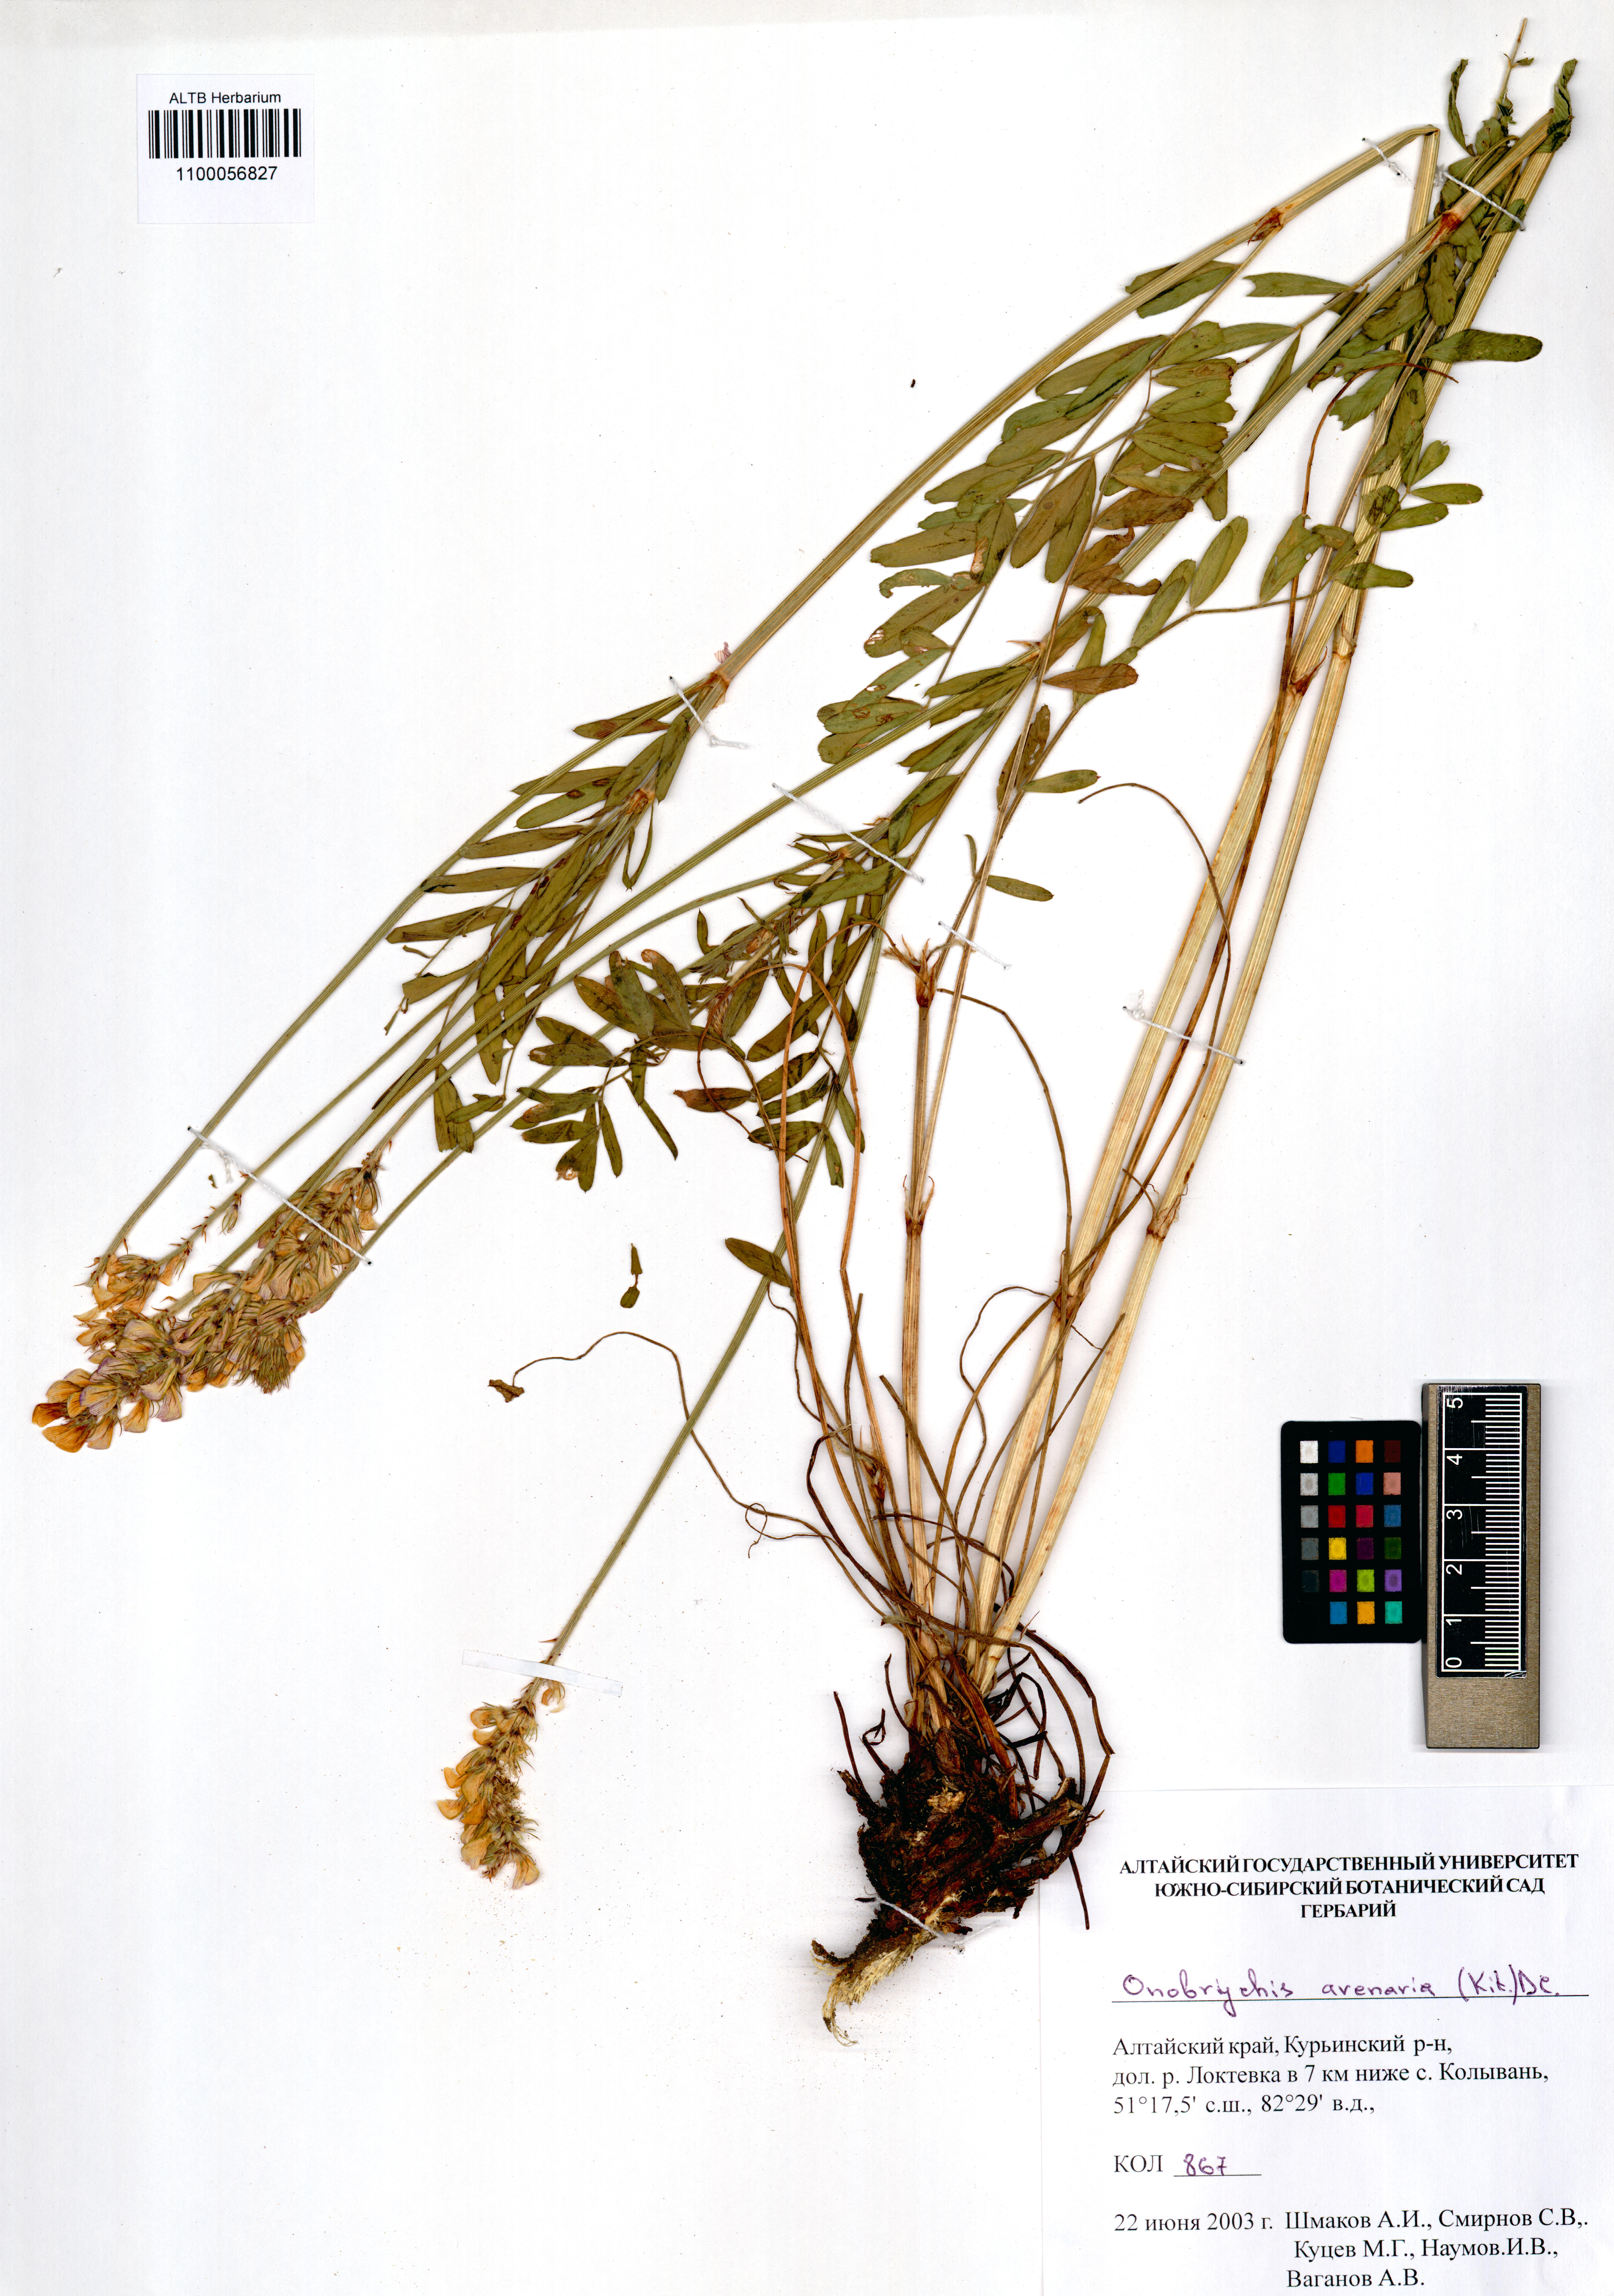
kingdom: Plantae
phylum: Tracheophyta
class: Magnoliopsida
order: Fabales
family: Fabaceae
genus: Onobrychis
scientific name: Onobrychis arenaria
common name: Sand esparcet
